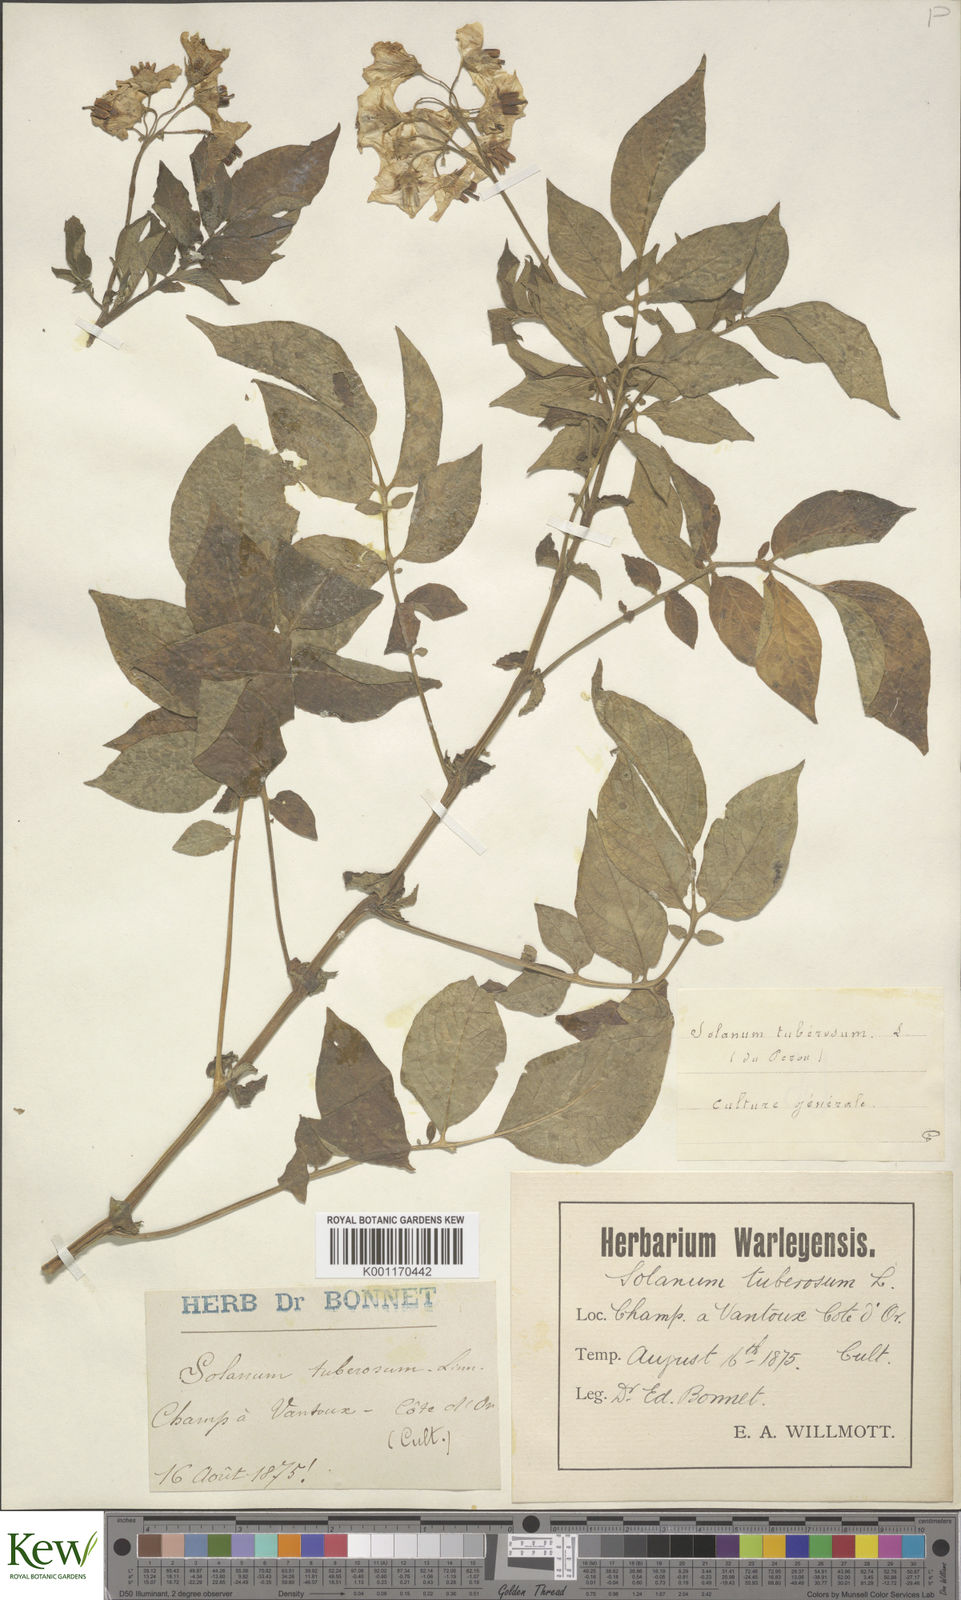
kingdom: Plantae
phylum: Tracheophyta
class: Magnoliopsida
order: Solanales
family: Solanaceae
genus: Solanum
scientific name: Solanum tuberosum
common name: Potato
